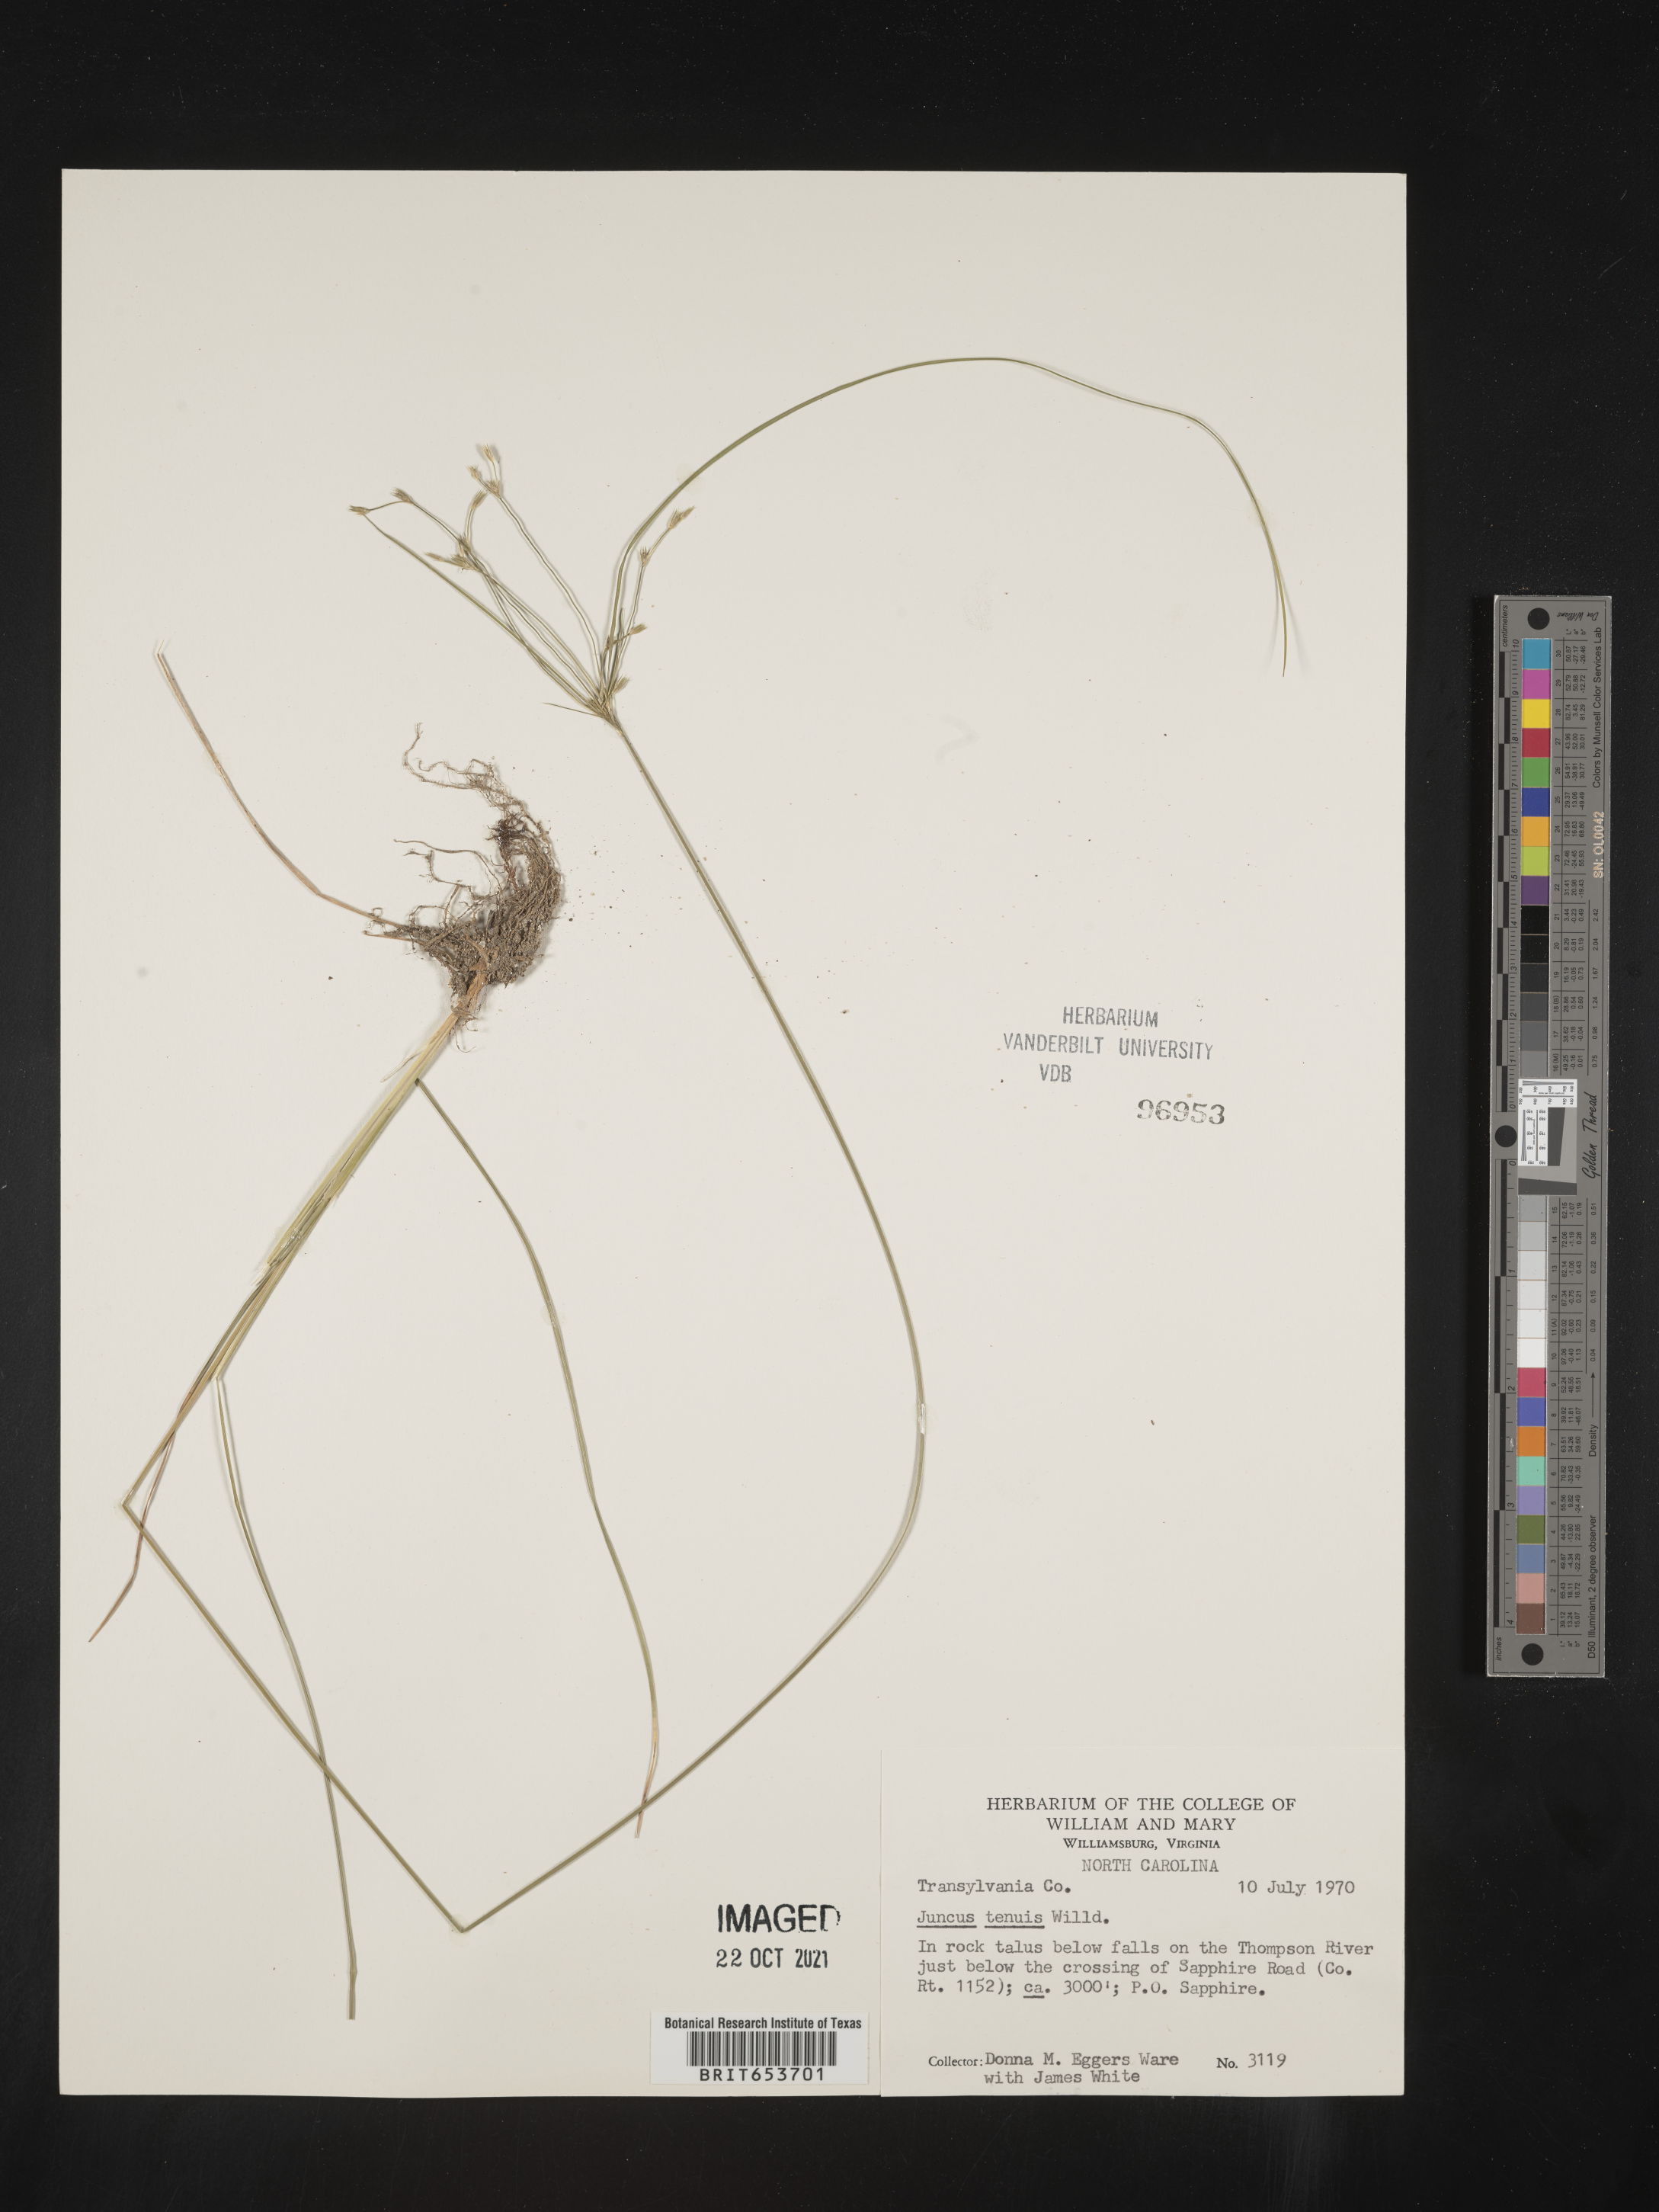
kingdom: Plantae
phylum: Tracheophyta
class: Liliopsida
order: Poales
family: Juncaceae
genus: Juncus
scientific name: Juncus tenuis
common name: Slender rush
